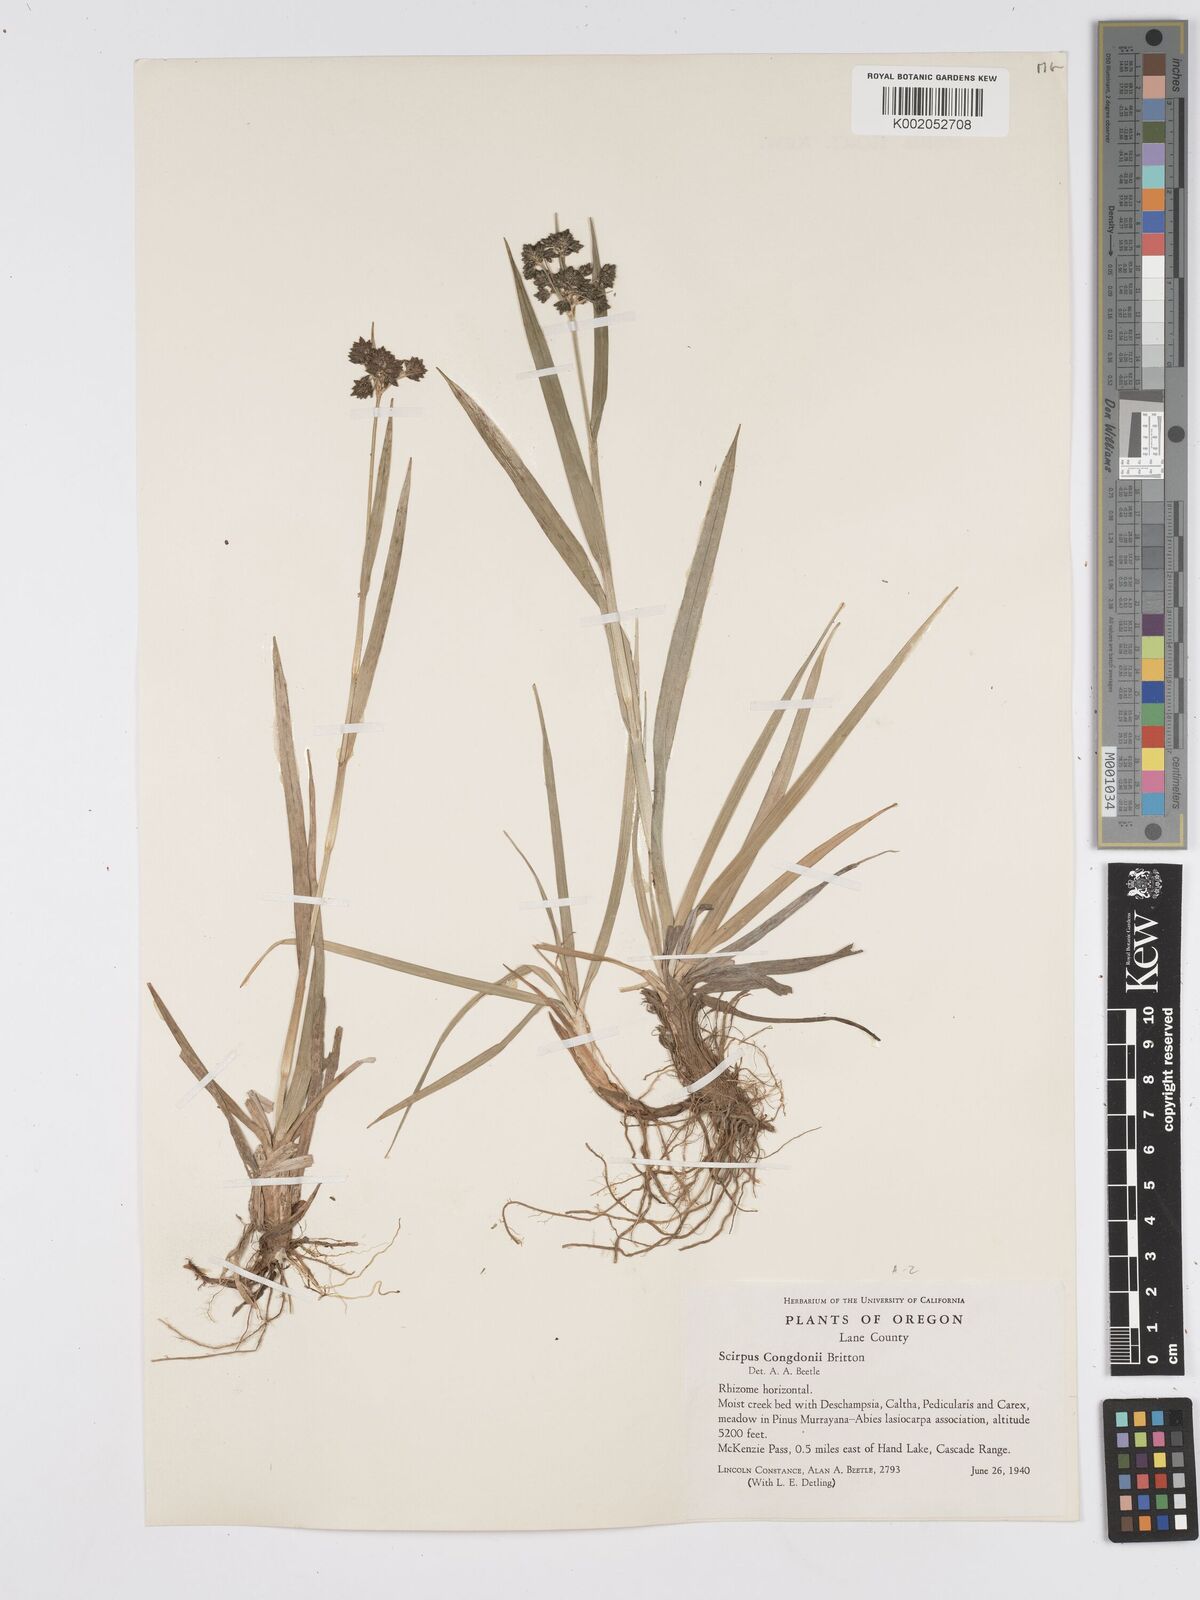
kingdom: Plantae
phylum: Tracheophyta
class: Liliopsida
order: Poales
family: Cyperaceae
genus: Scirpus
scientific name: Scirpus congdonii
